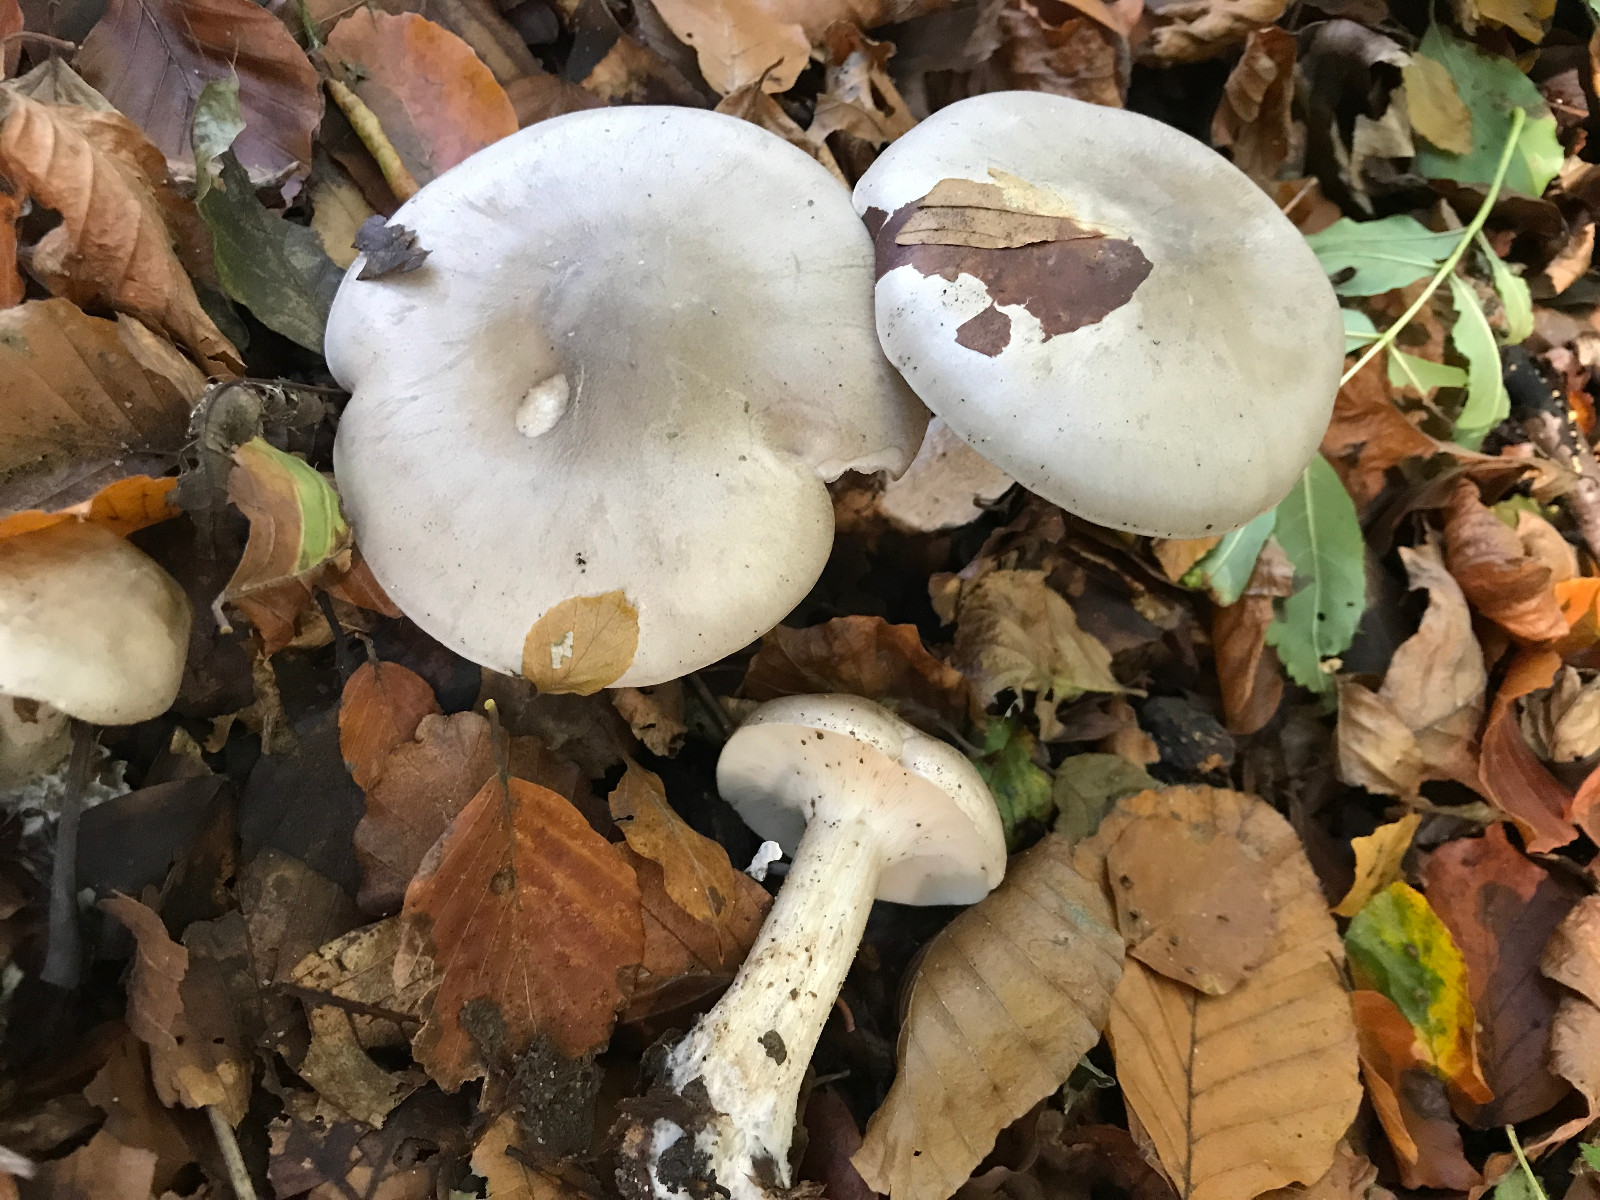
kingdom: Fungi
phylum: Basidiomycota
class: Agaricomycetes
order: Agaricales
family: Tricholomataceae
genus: Clitocybe
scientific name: Clitocybe nebularis
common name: tåge-tragthat
